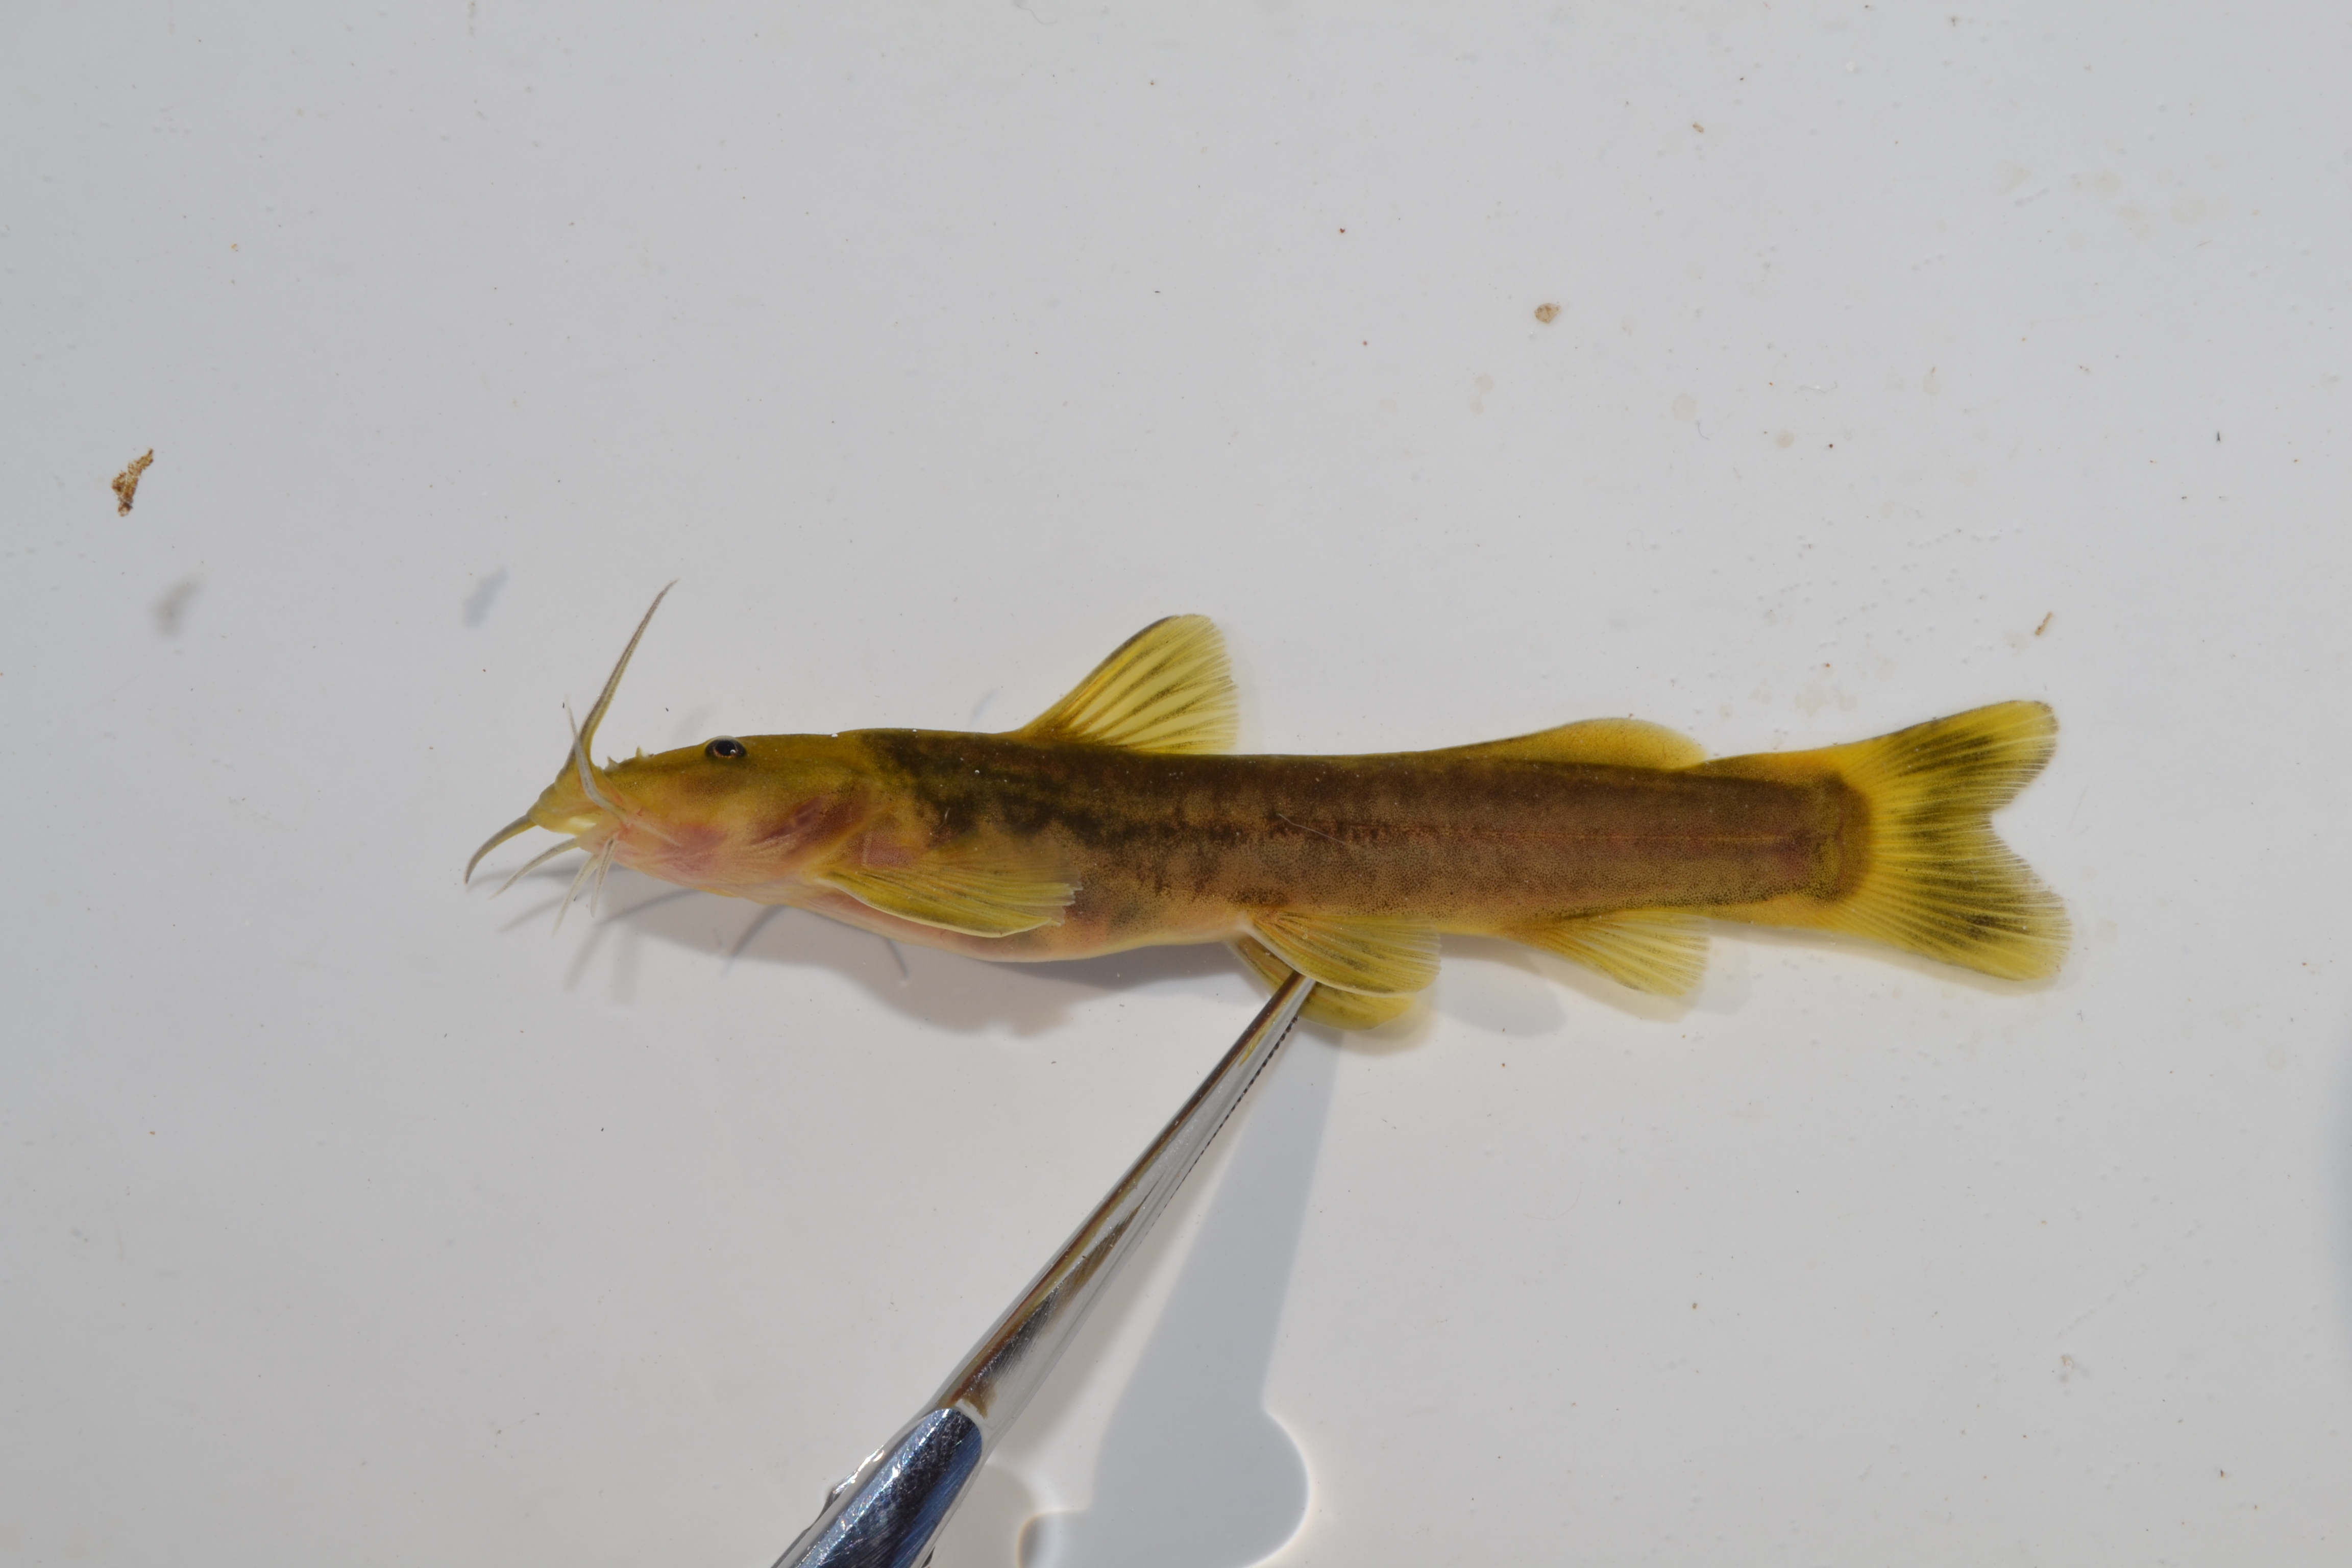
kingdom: Animalia
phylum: Chordata
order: Siluriformes
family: Amphiliidae
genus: Amphilius
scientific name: Amphilius uranoscopus
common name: Stargazer mountain catfish
